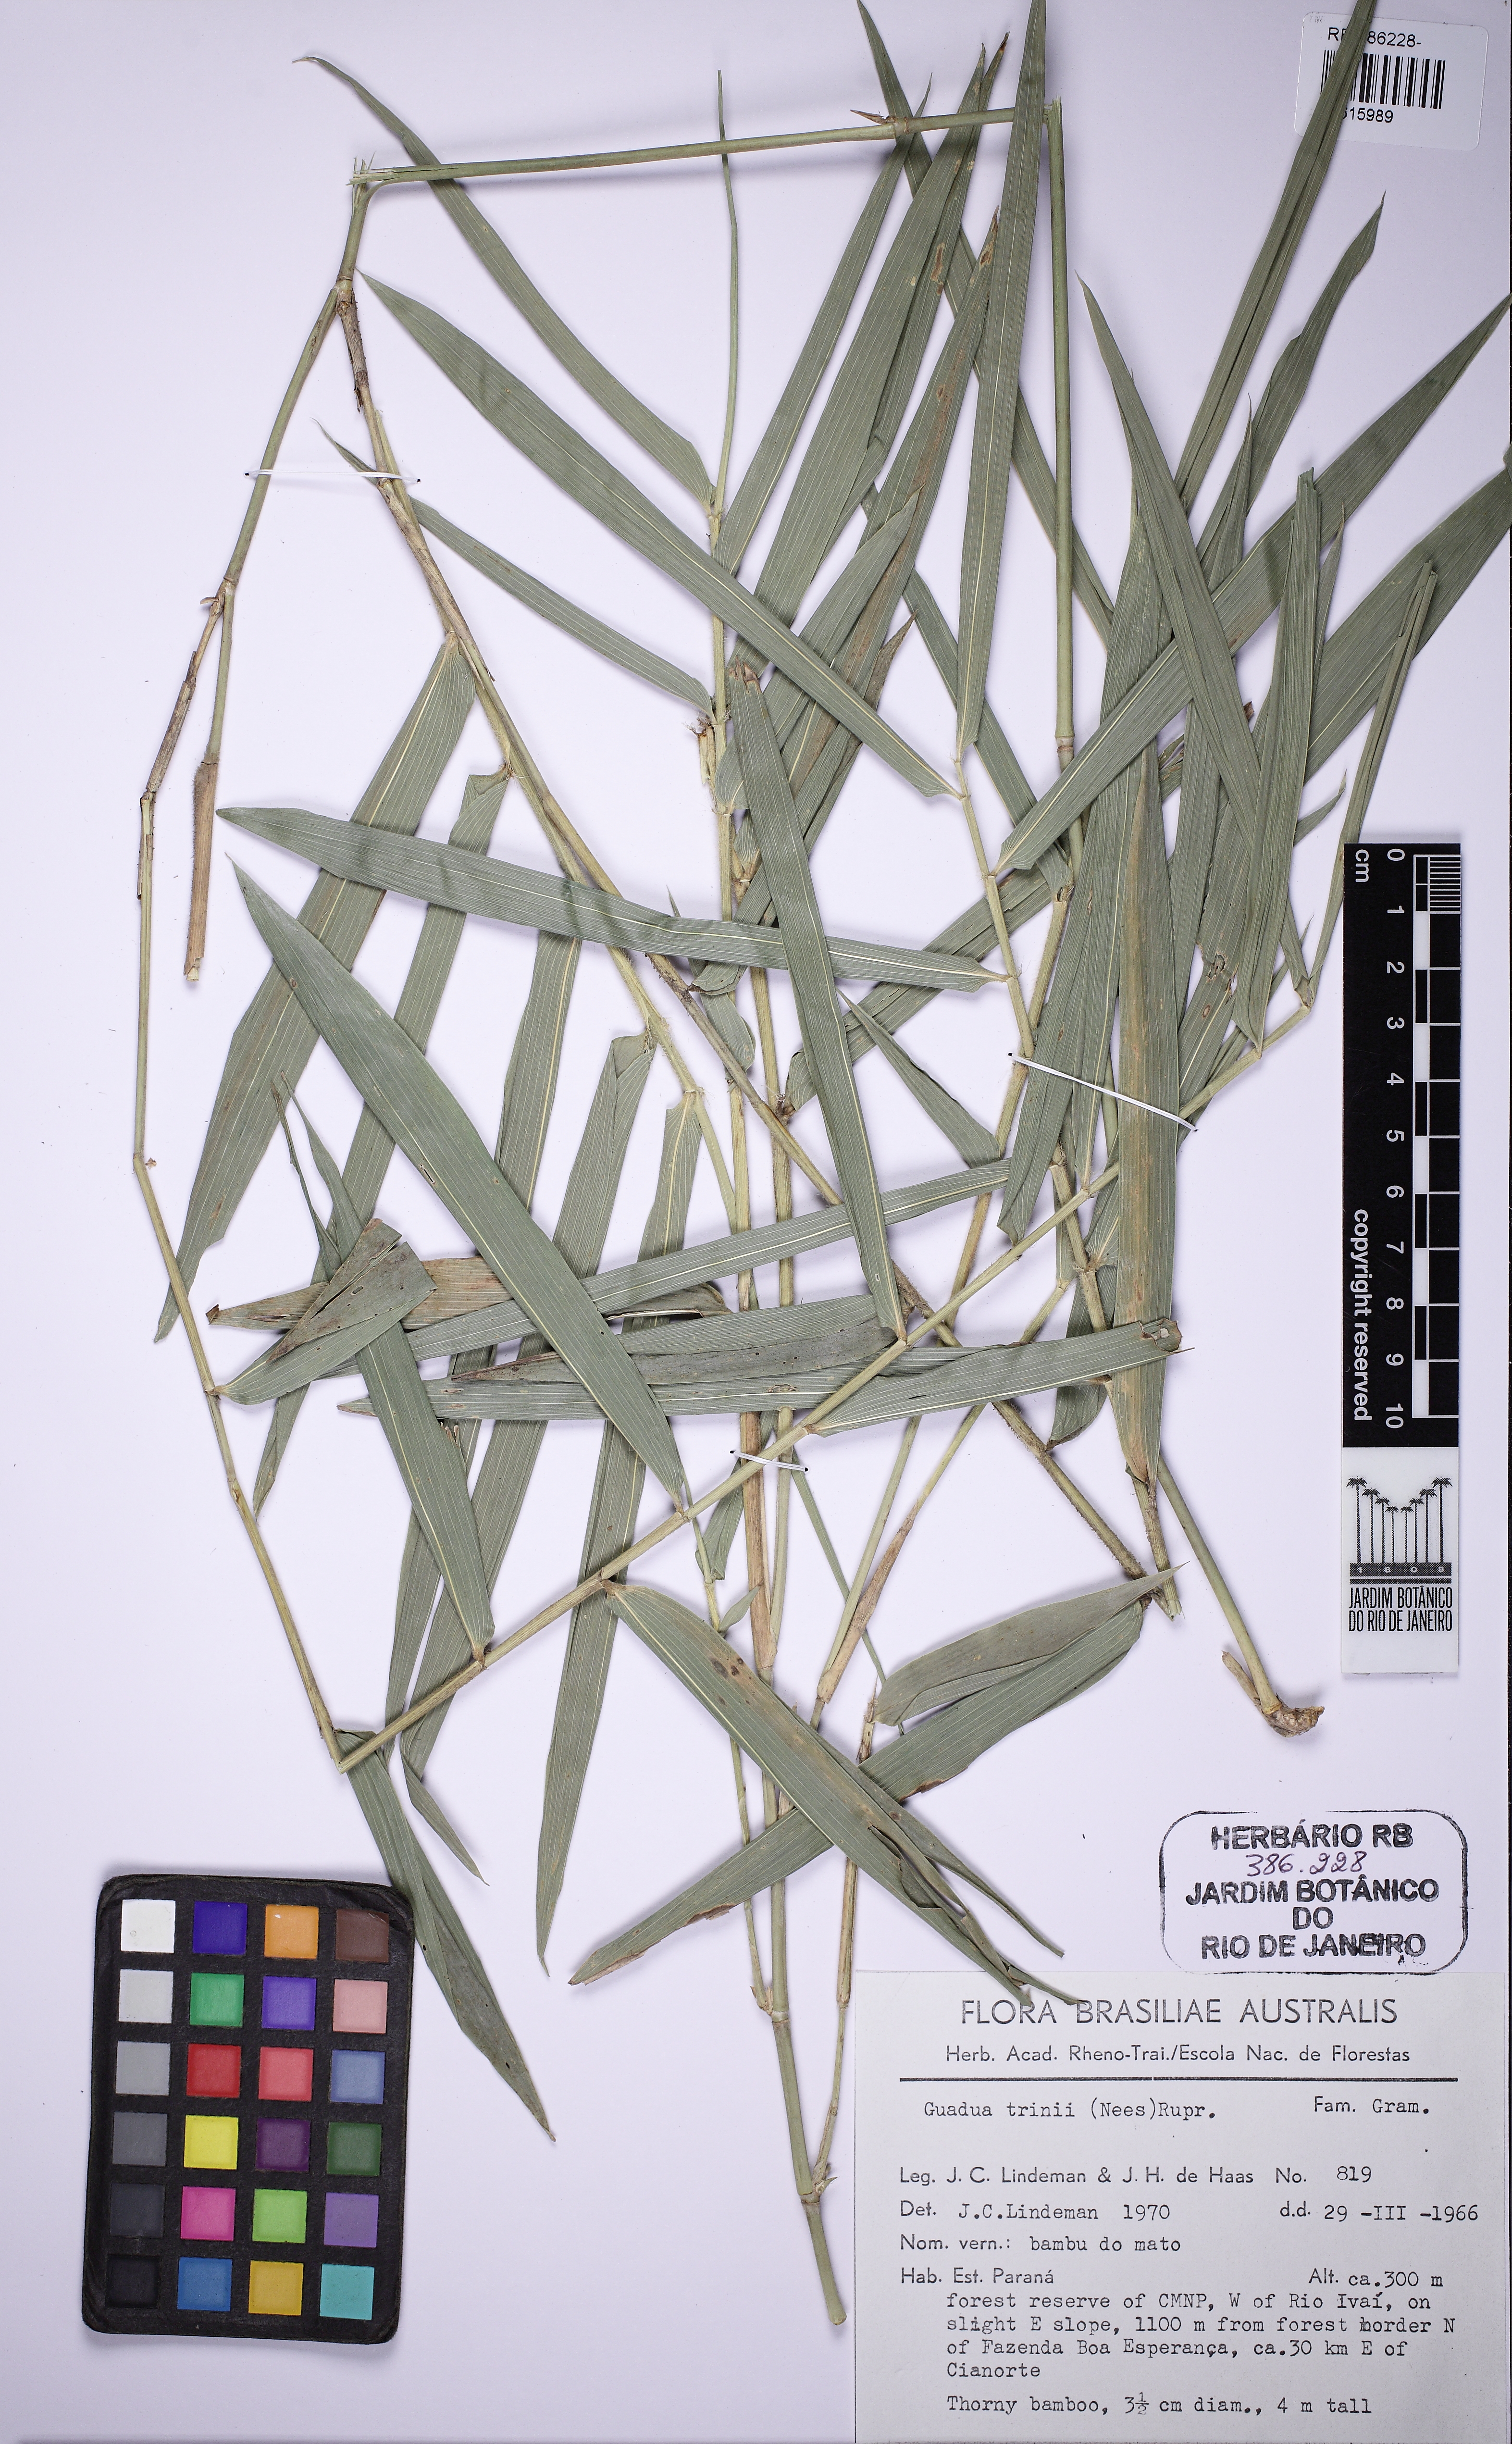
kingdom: Plantae
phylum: Tracheophyta
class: Liliopsida
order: Poales
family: Poaceae
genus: Guadua
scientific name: Guadua trinii
